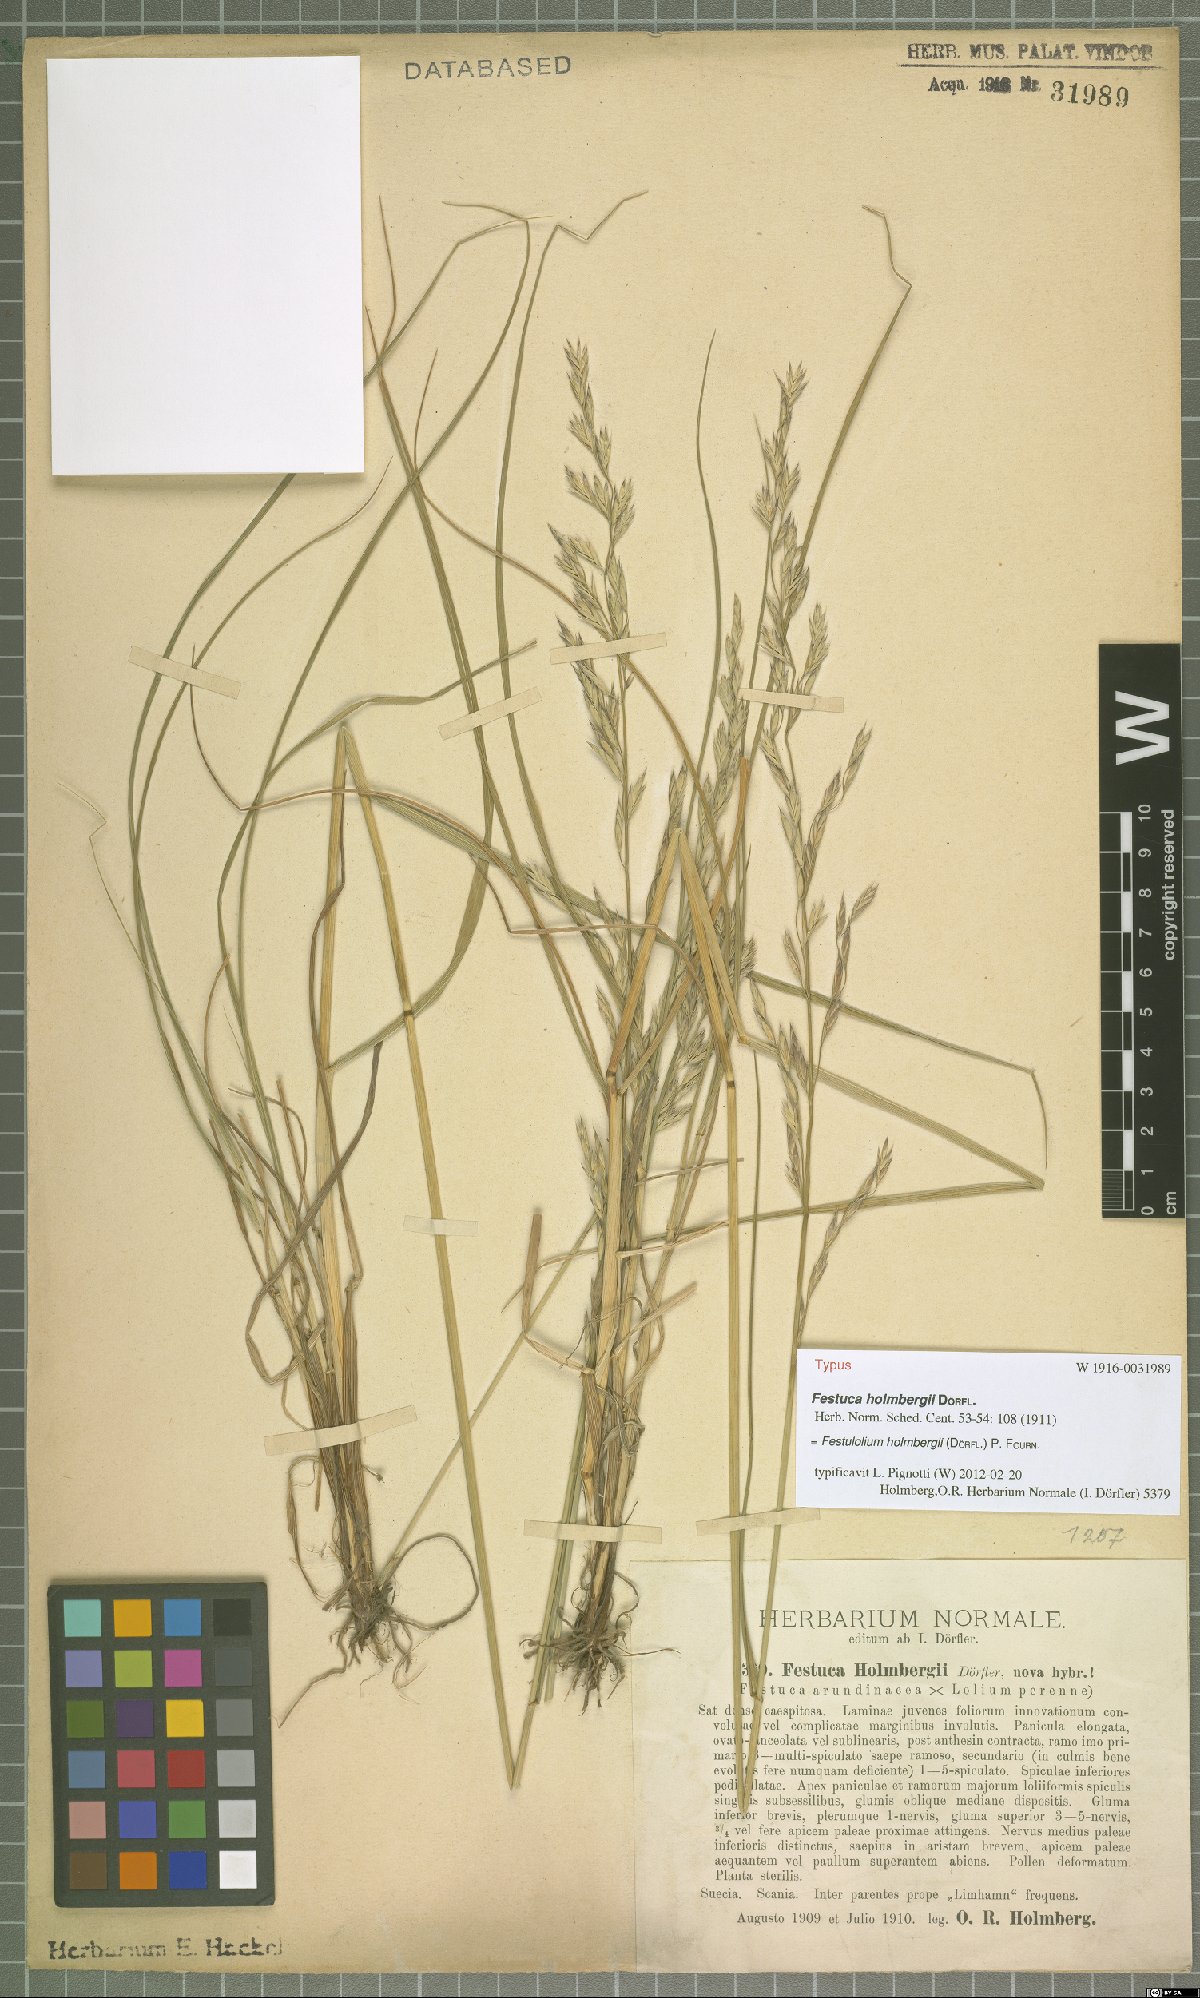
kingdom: Plantae
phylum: Tracheophyta
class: Liliopsida
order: Poales
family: Poaceae
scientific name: Poaceae
